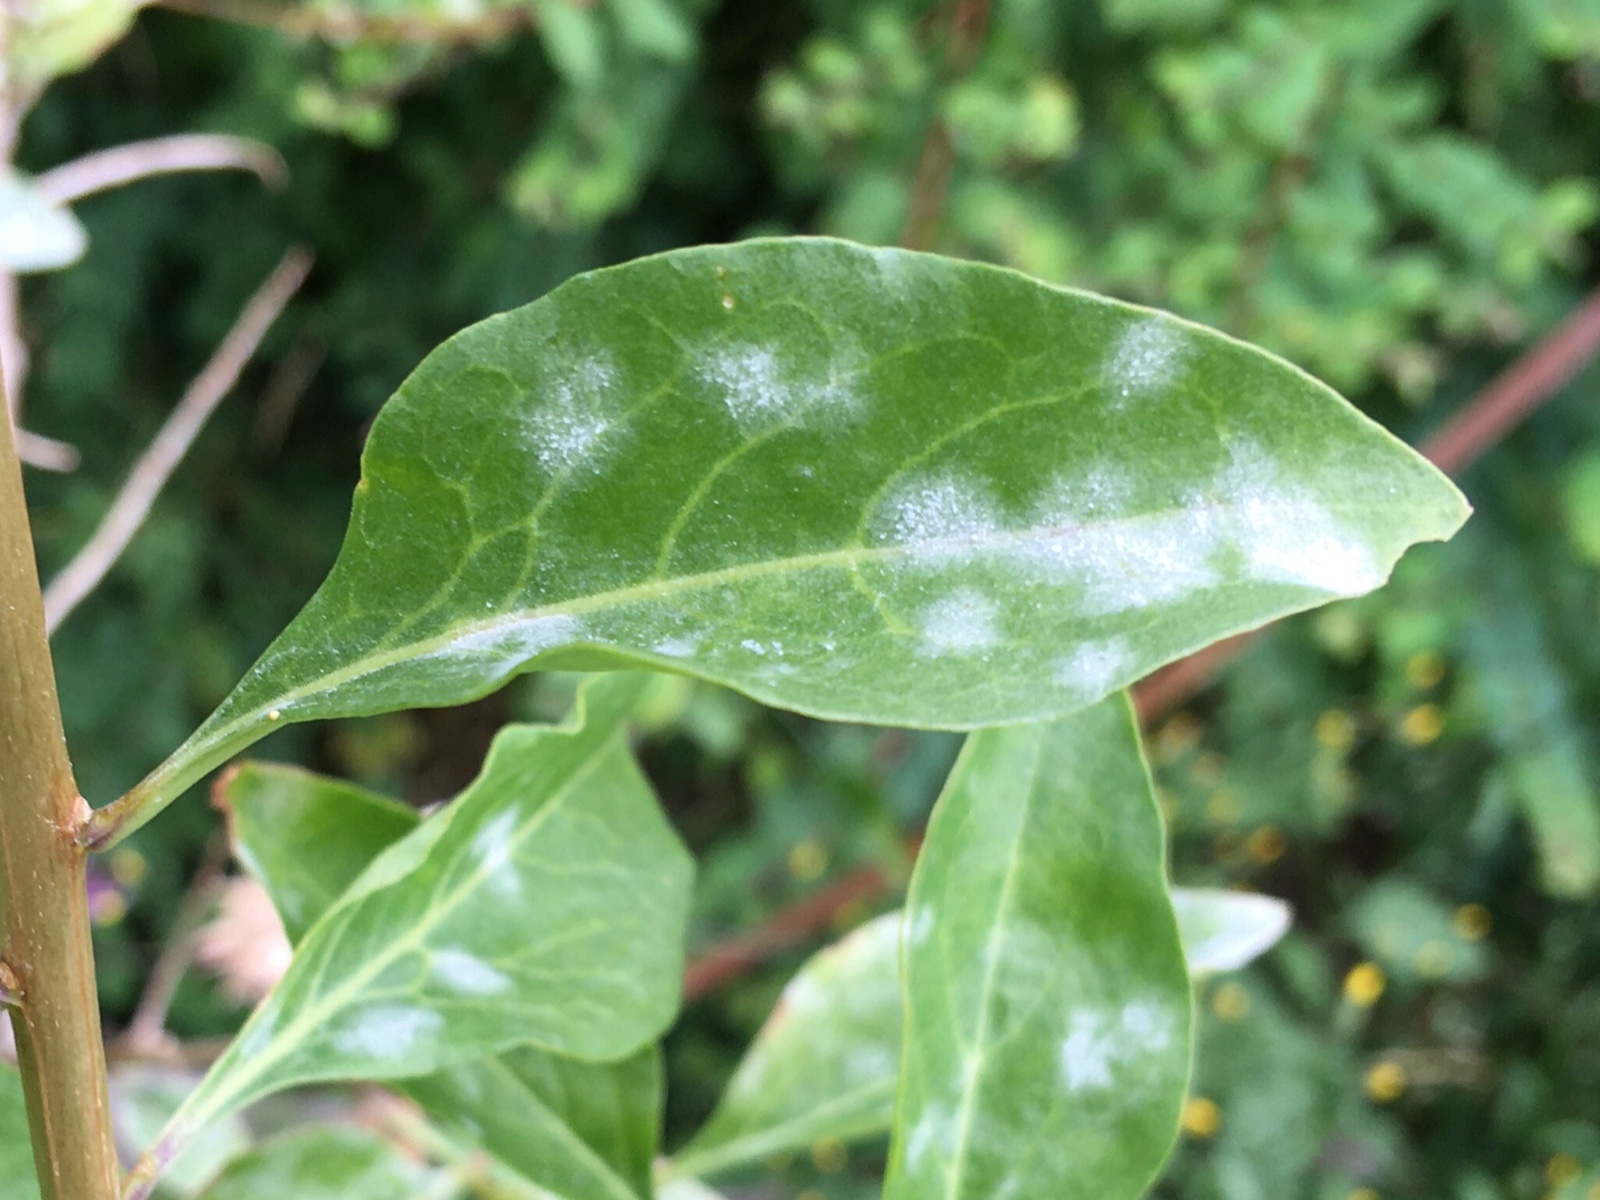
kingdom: Fungi
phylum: Ascomycota
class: Leotiomycetes
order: Helotiales
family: Erysiphaceae
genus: Erysiphe
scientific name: Erysiphe mougeotii
